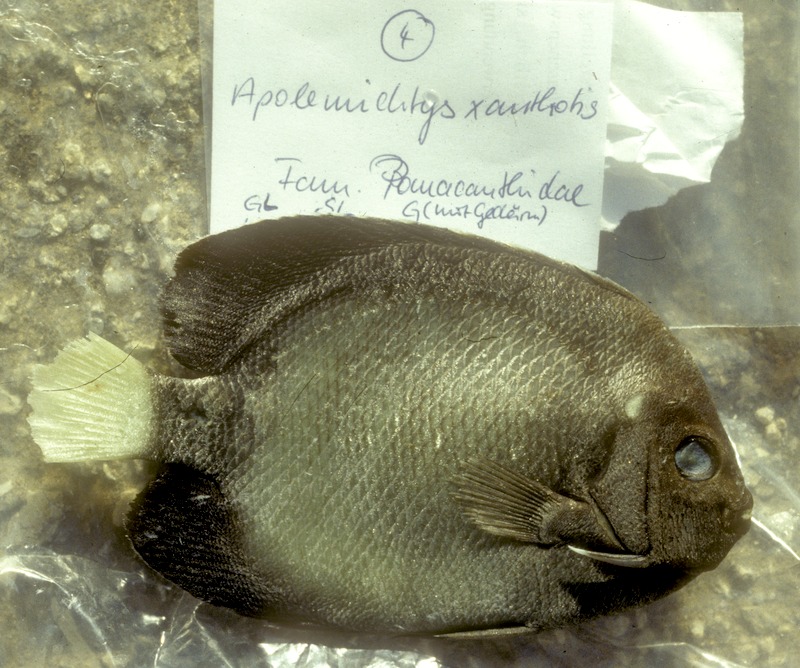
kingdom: Animalia
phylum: Chordata
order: Perciformes
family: Pomacanthidae
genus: Apolemichthys
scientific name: Apolemichthys xanthotis
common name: Red sea angelfish
